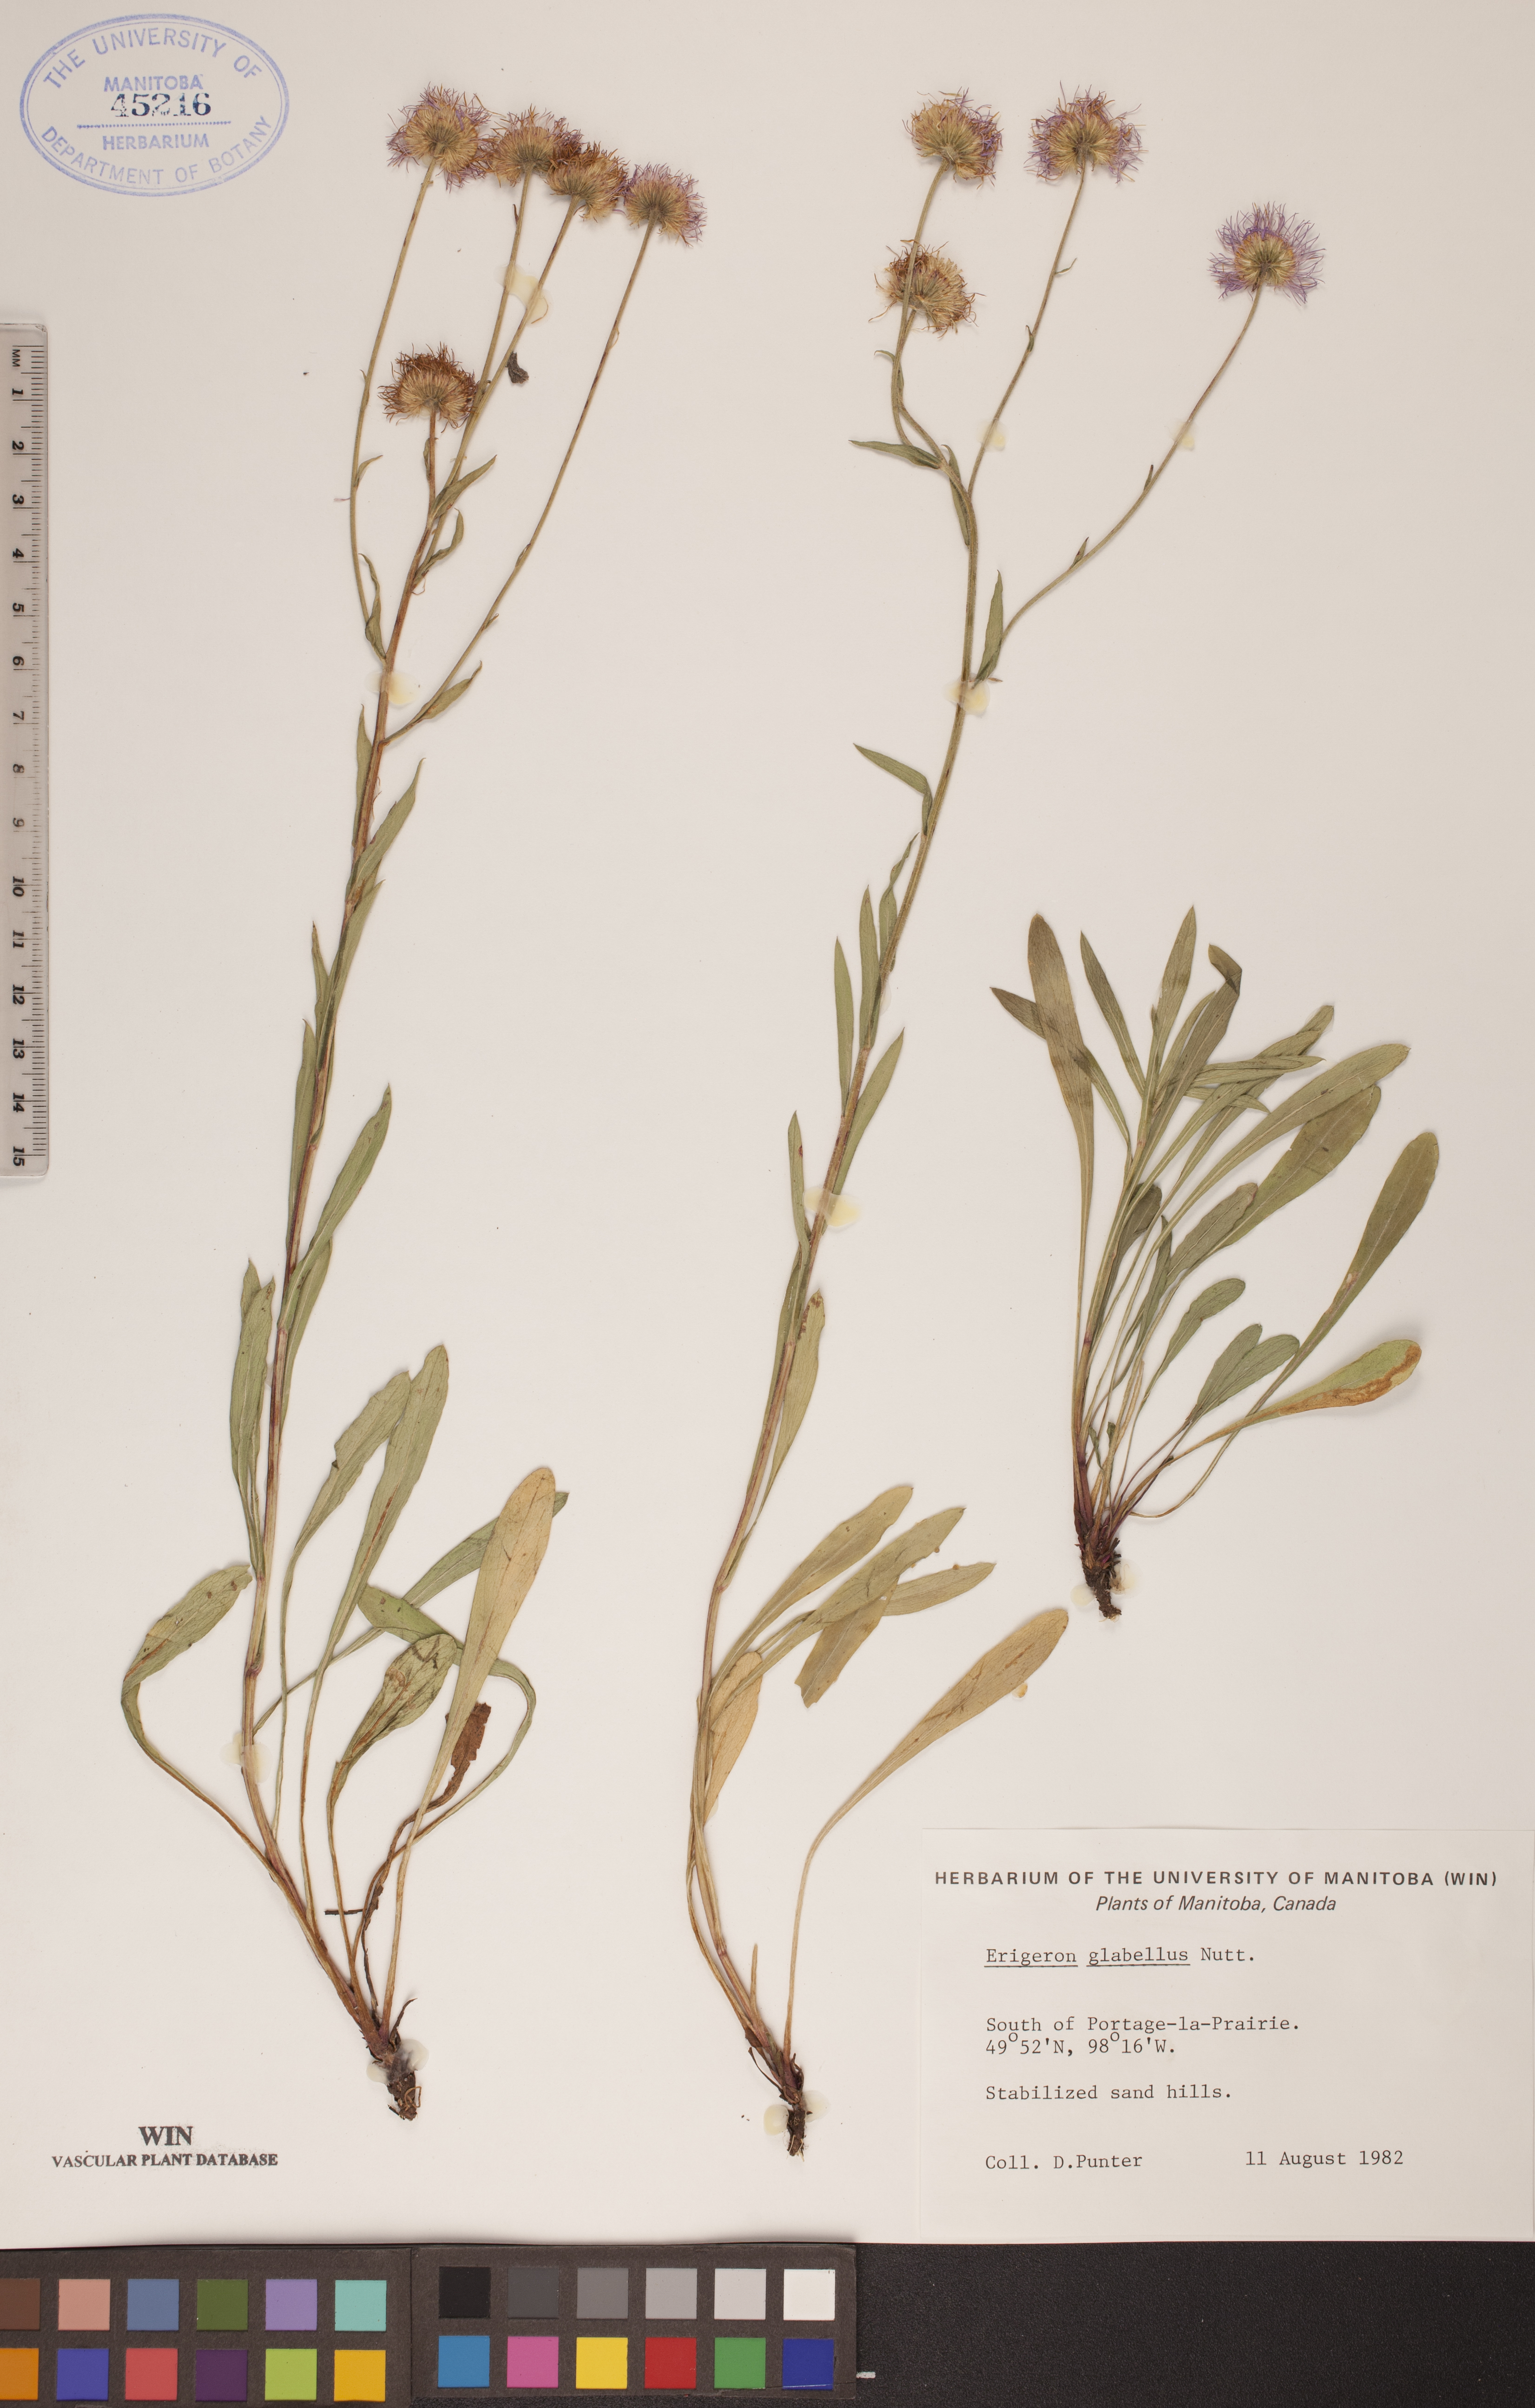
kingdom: Plantae
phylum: Tracheophyta
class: Magnoliopsida
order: Asterales
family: Asteraceae
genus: Erigeron
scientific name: Erigeron glabellus
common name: Smooth fleabane
